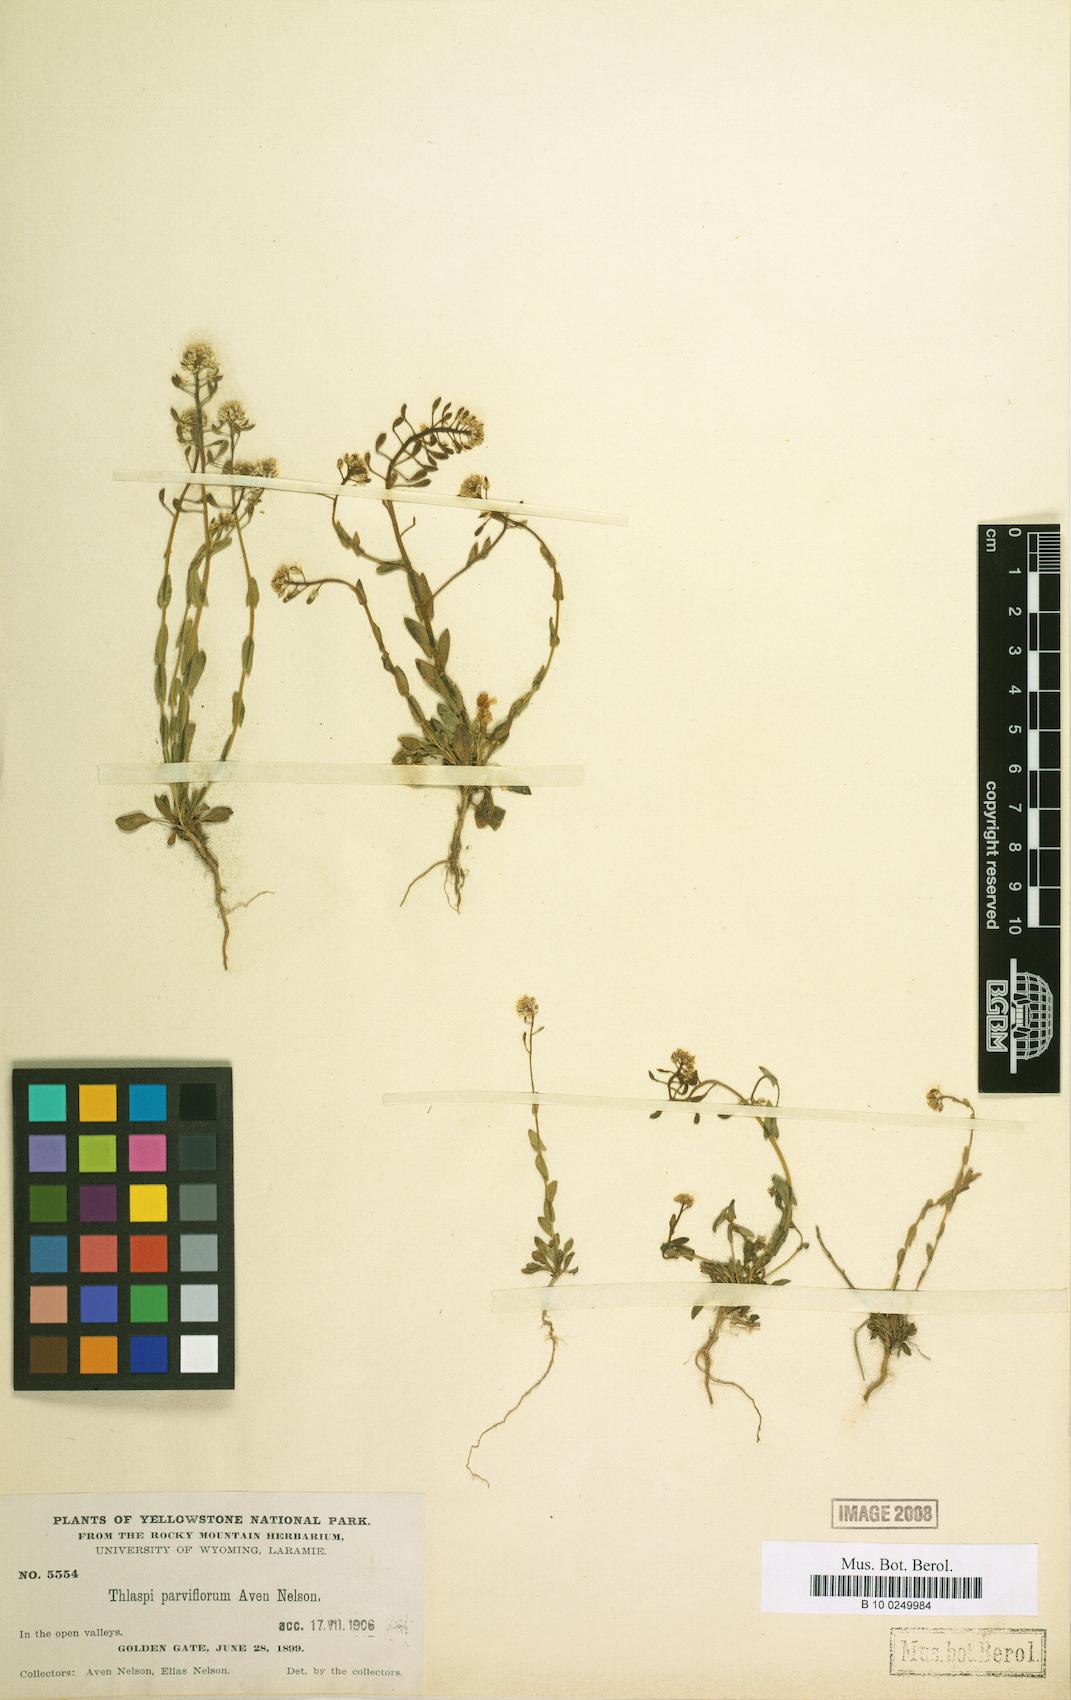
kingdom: Plantae
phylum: Tracheophyta
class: Magnoliopsida
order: Brassicales
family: Brassicaceae
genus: Noccaea
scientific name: Noccaea parviflora
